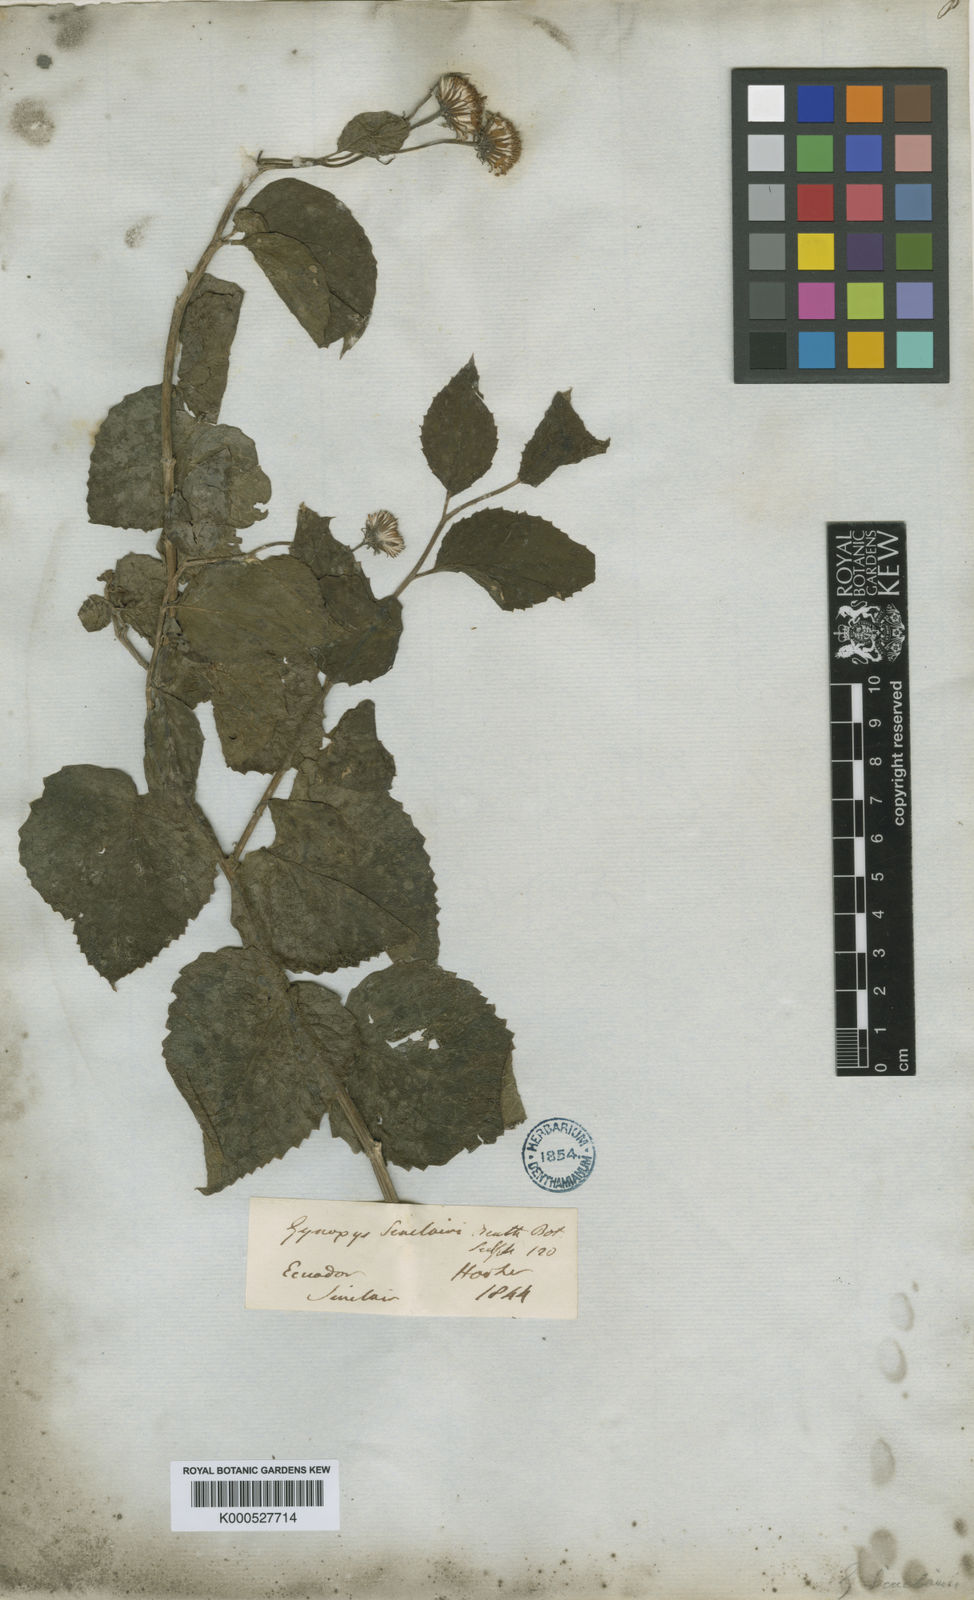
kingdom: Plantae
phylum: Tracheophyta
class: Magnoliopsida
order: Asterales
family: Asteraceae
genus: Pseudogynoxys
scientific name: Pseudogynoxys sonchoides
